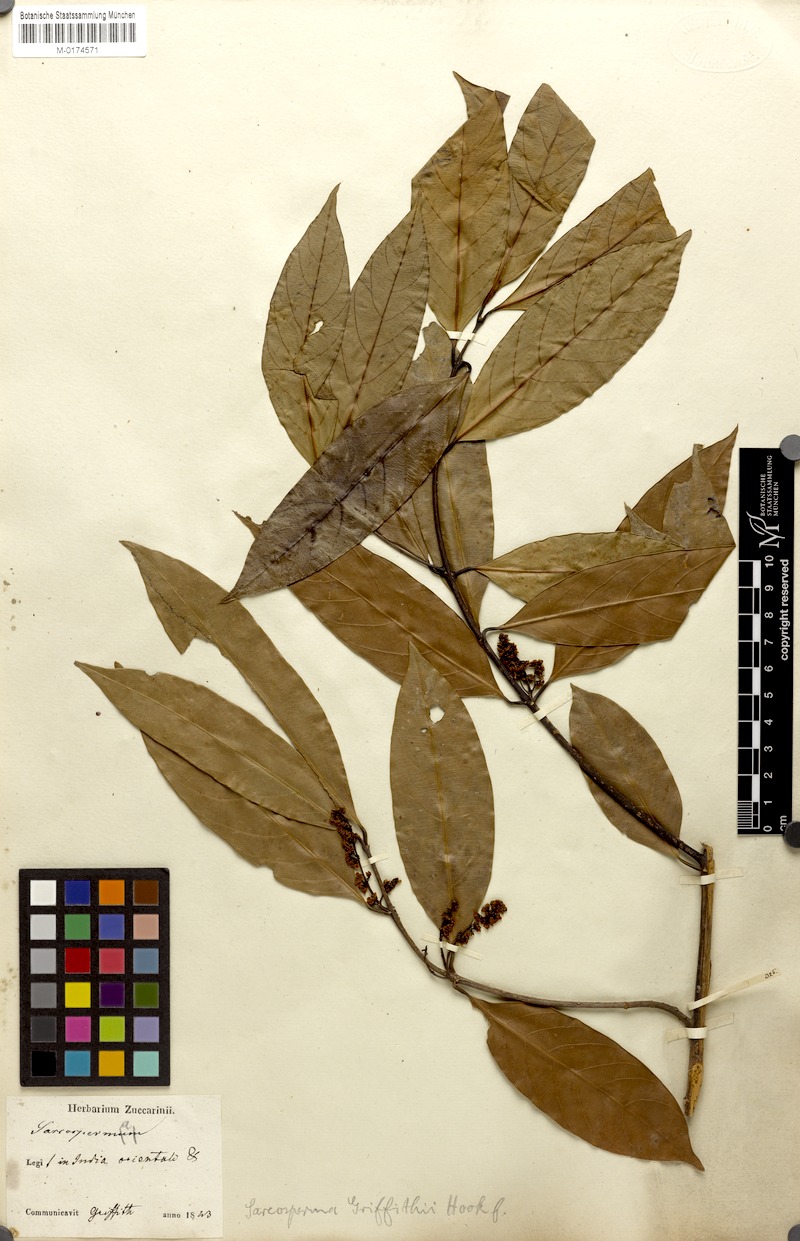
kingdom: Plantae
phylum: Tracheophyta
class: Magnoliopsida
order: Ericales
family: Sapotaceae
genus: Sarcosperma
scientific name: Sarcosperma griffithii
